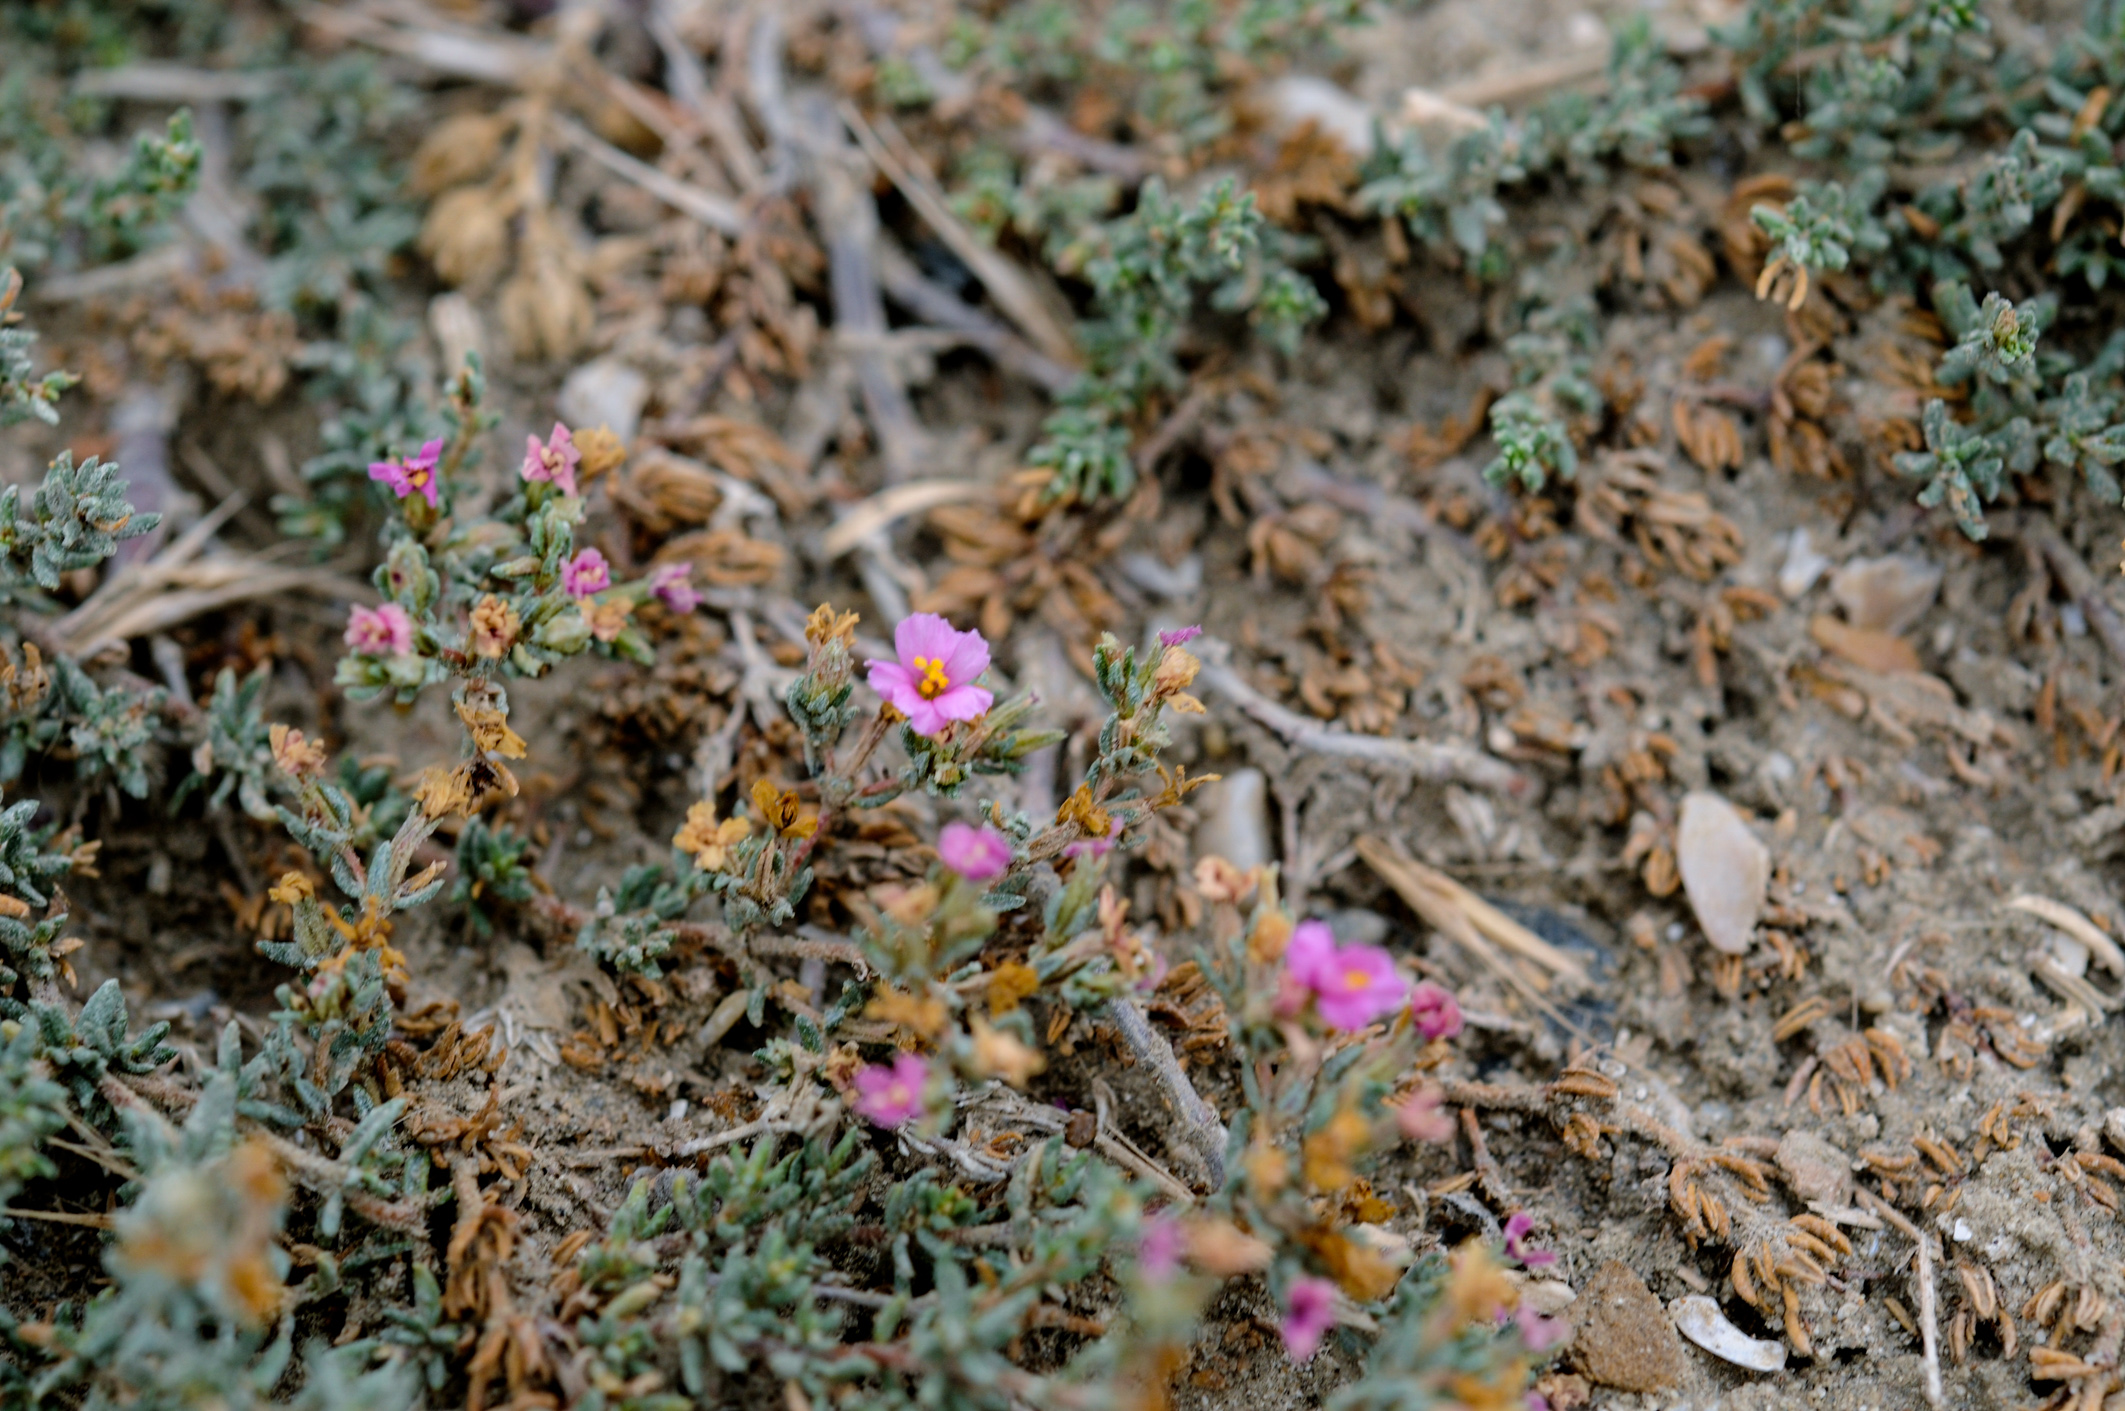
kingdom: Plantae
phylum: Tracheophyta
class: Magnoliopsida
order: Caryophyllales
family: Frankeniaceae
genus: Frankenia
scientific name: Frankenia hirsuta
